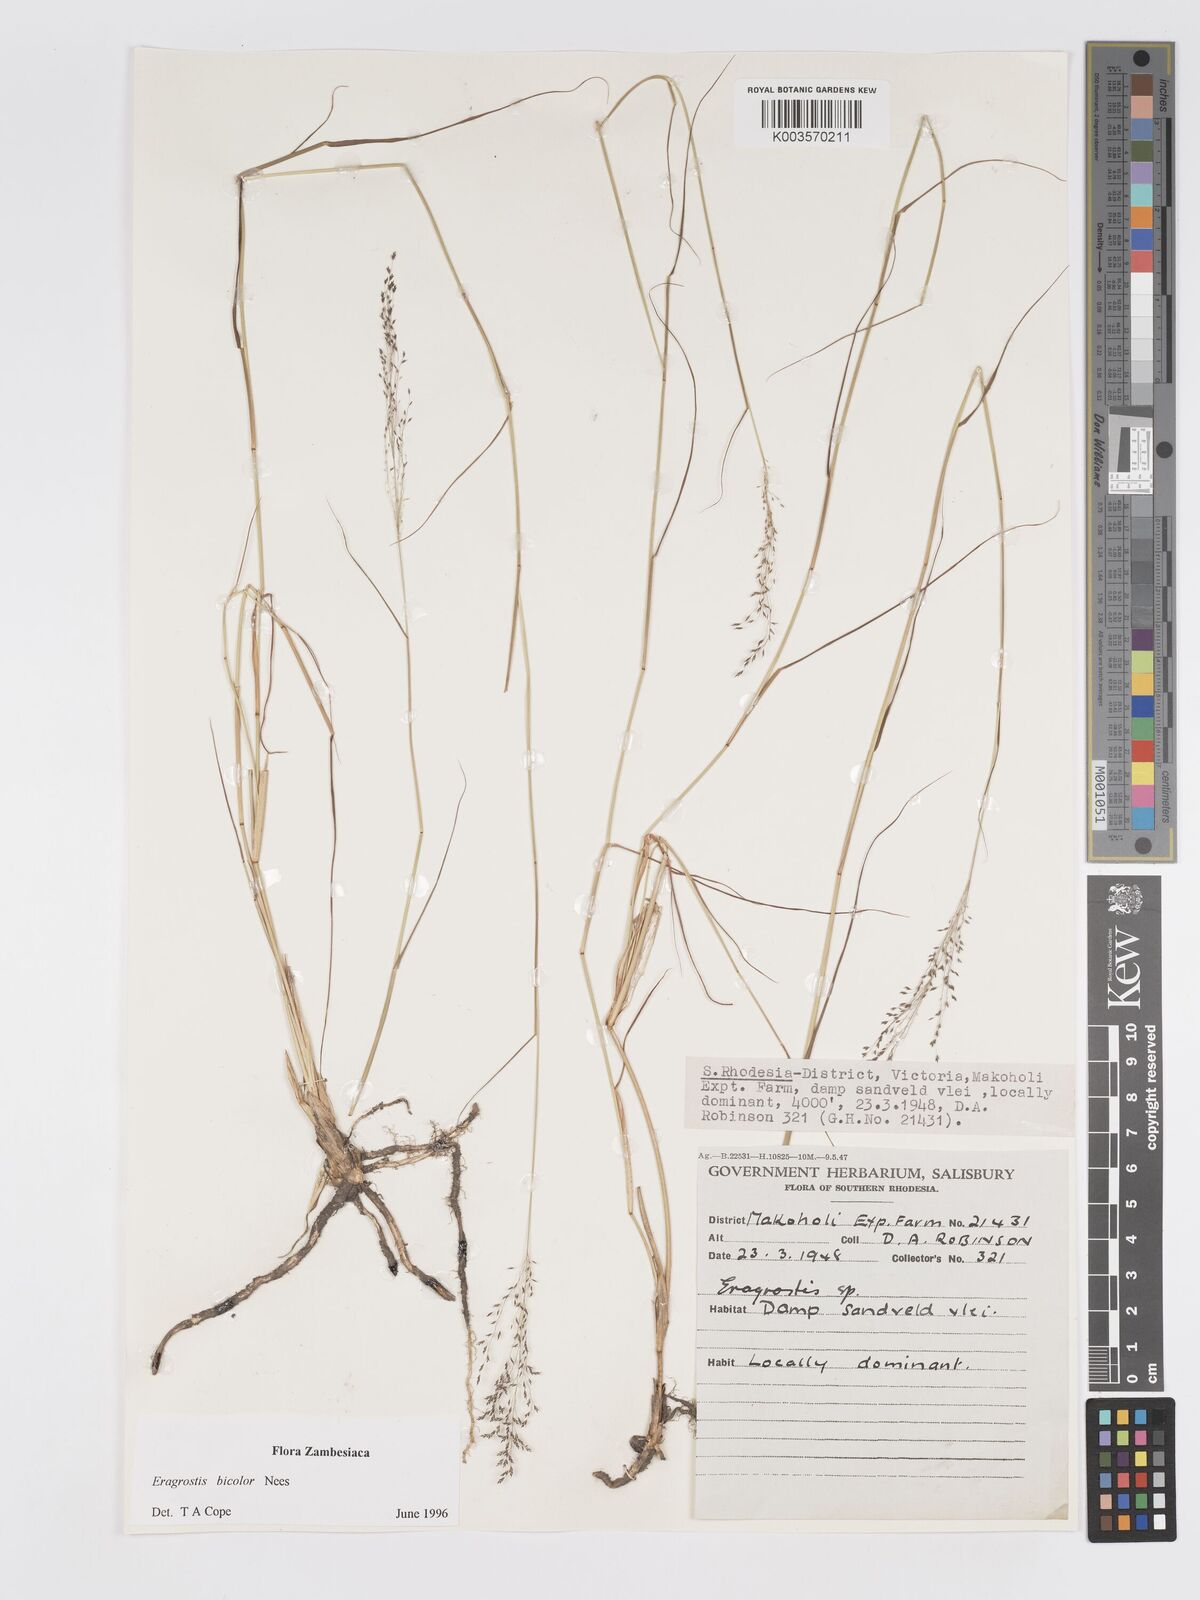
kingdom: Plantae
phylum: Tracheophyta
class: Liliopsida
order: Poales
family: Poaceae
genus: Eragrostis
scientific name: Eragrostis bicolor
